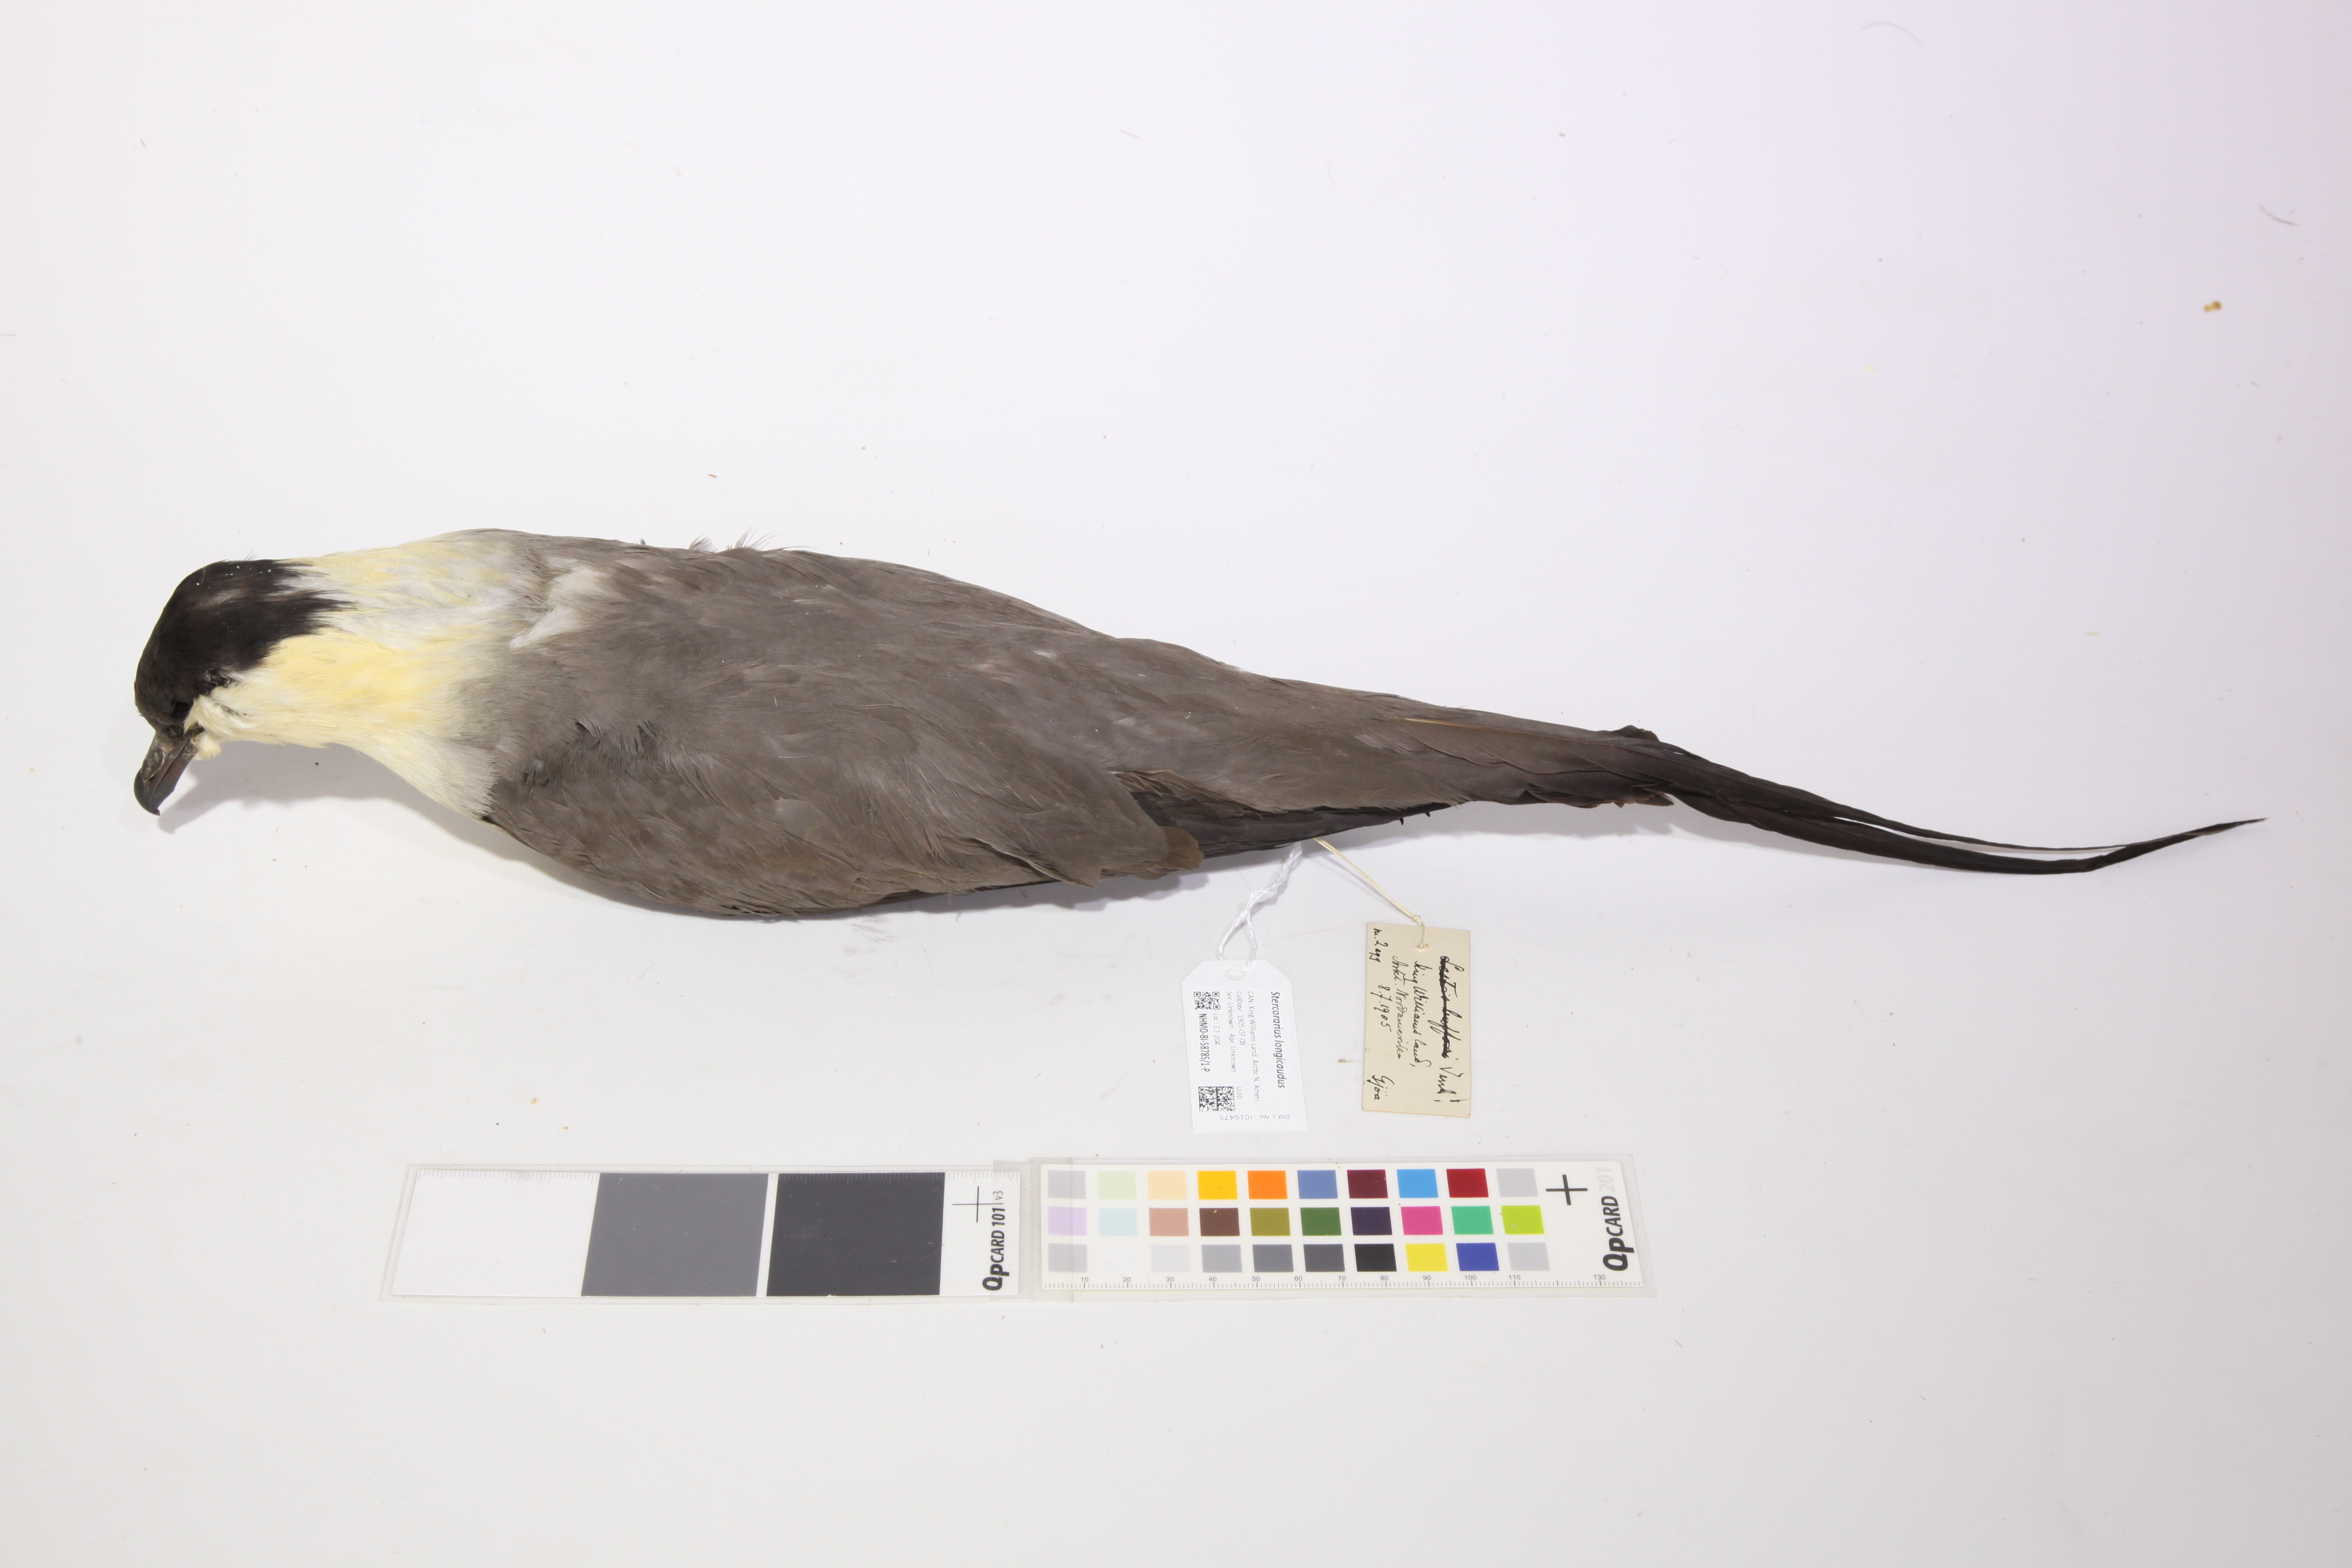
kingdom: Animalia
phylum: Chordata
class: Aves
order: Charadriiformes
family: Stercorariidae
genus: Stercorarius
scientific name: Stercorarius longicaudus
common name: Long-tailed jaeger
